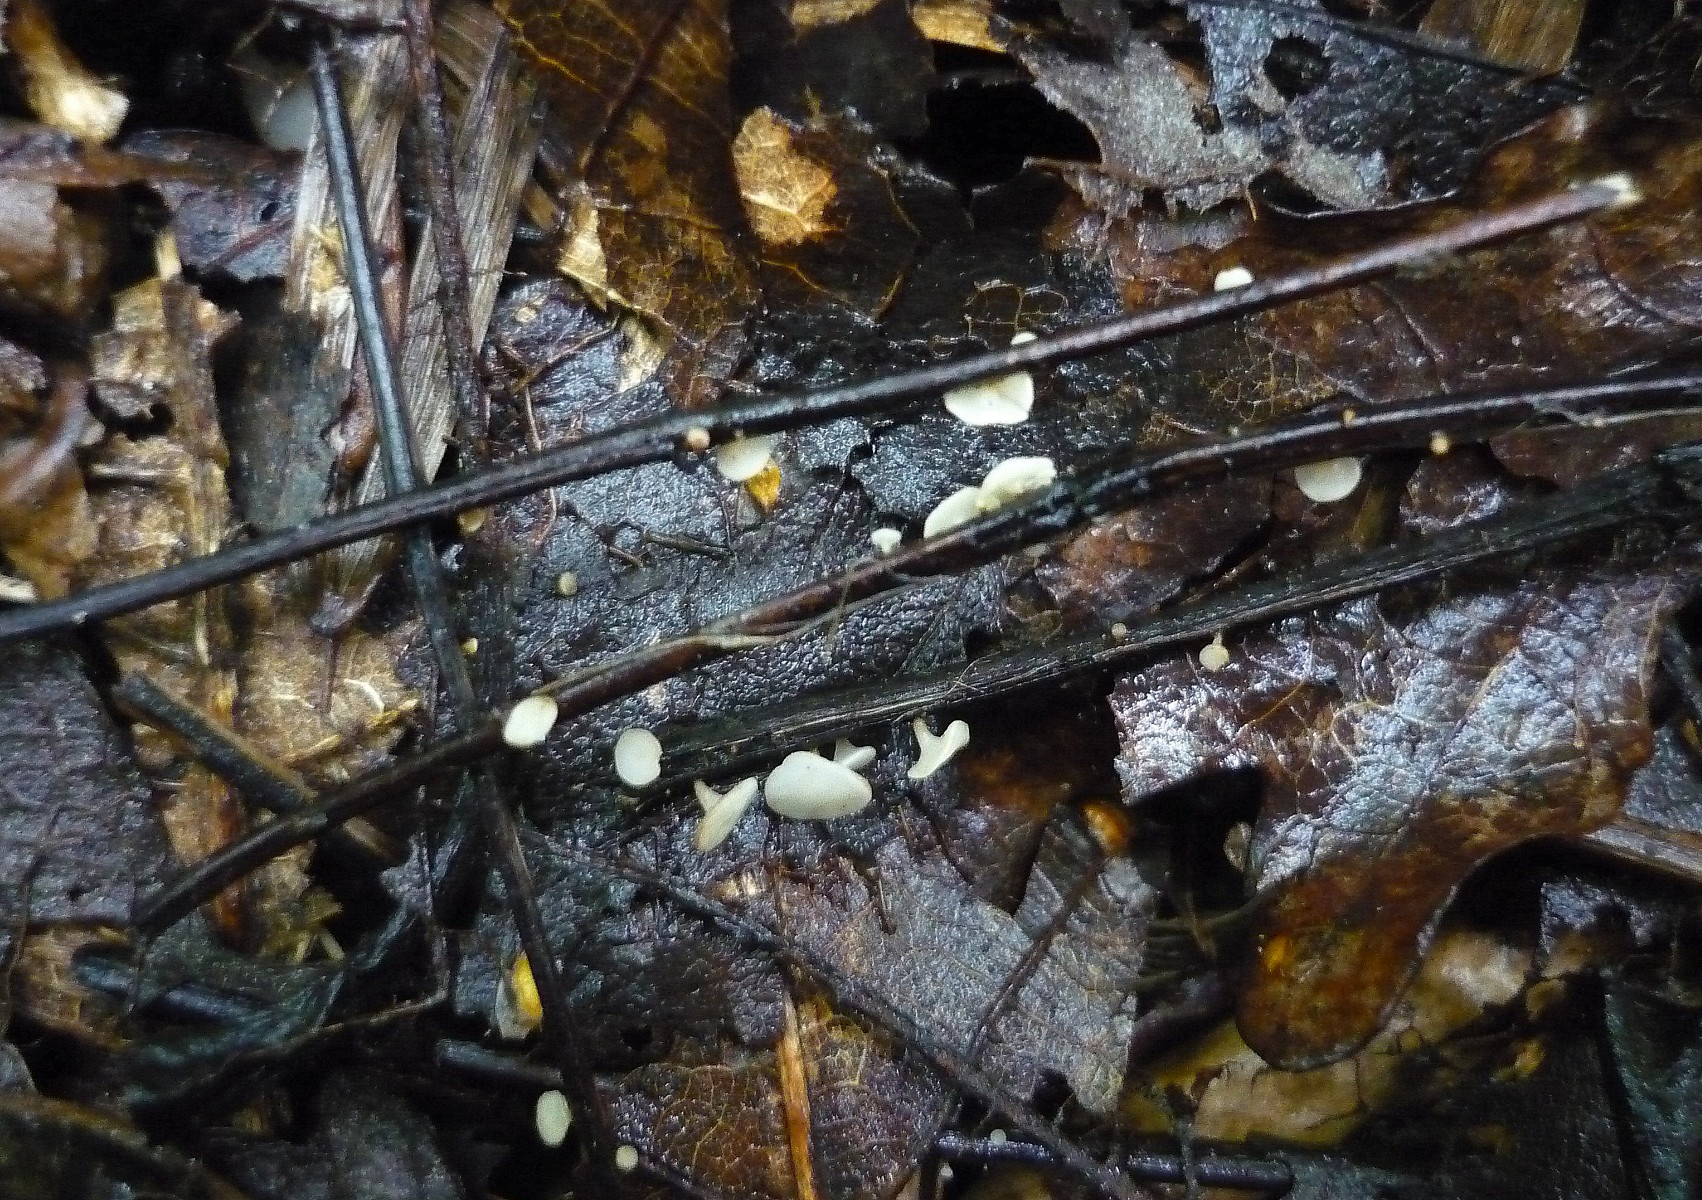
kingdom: Fungi
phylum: Ascomycota
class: Leotiomycetes
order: Helotiales
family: Helotiaceae
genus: Hymenoscyphus
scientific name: Hymenoscyphus fraxineus
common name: asketoptørre-stilkskive
